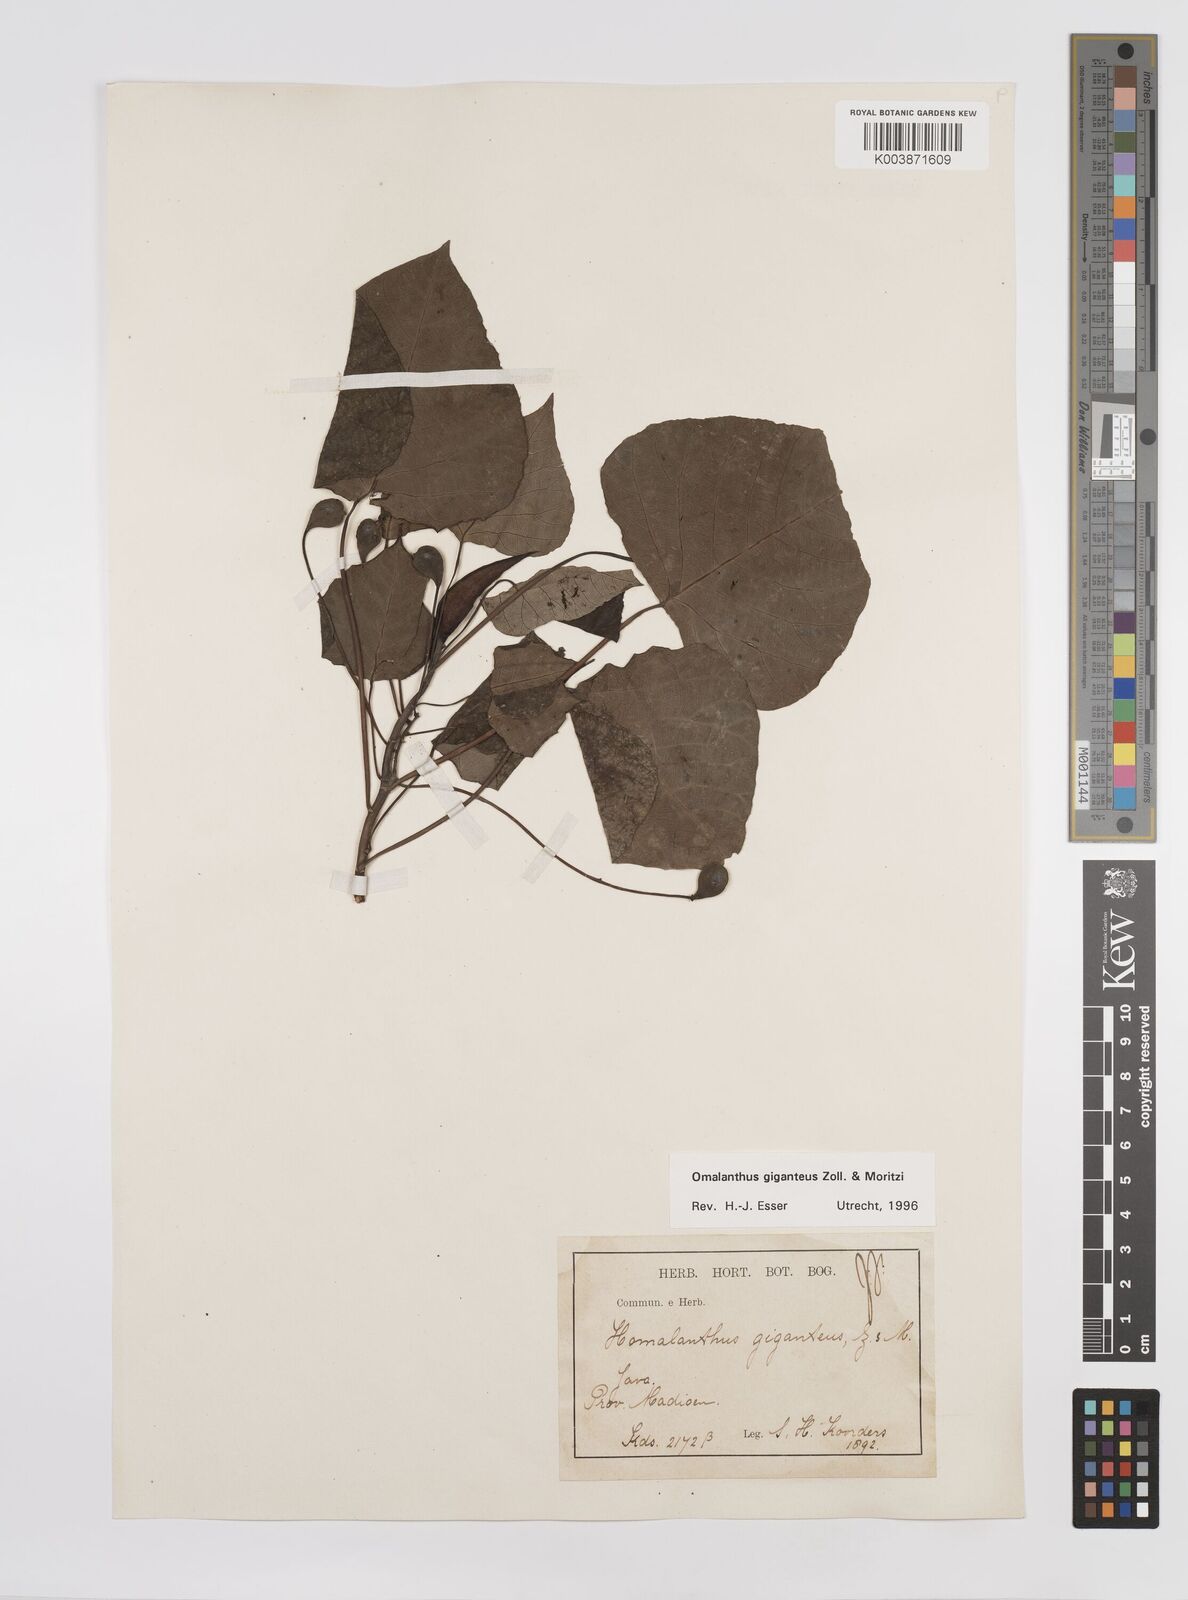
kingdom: Plantae
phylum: Tracheophyta
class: Magnoliopsida
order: Malpighiales
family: Euphorbiaceae
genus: Homalanthus
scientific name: Homalanthus giganteus
